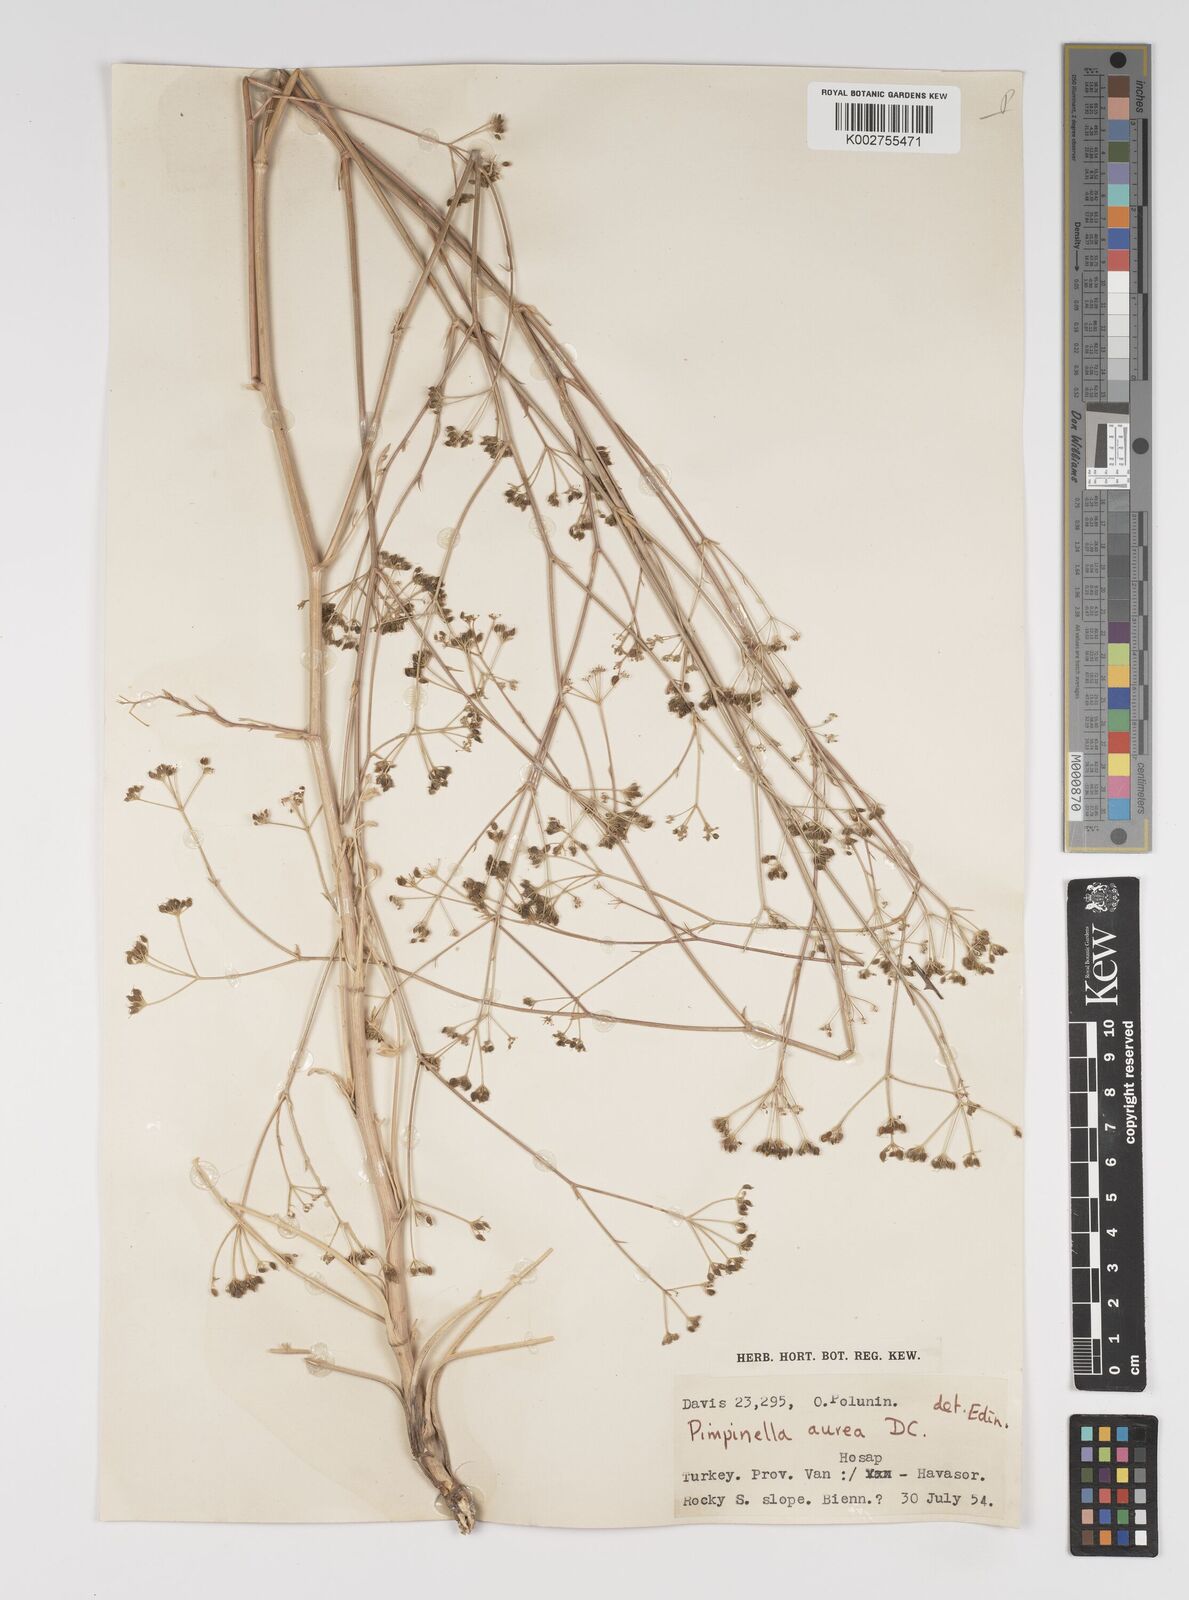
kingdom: Plantae
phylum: Tracheophyta
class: Magnoliopsida
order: Apiales
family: Apiaceae
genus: Pimpinella
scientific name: Pimpinella aurea
